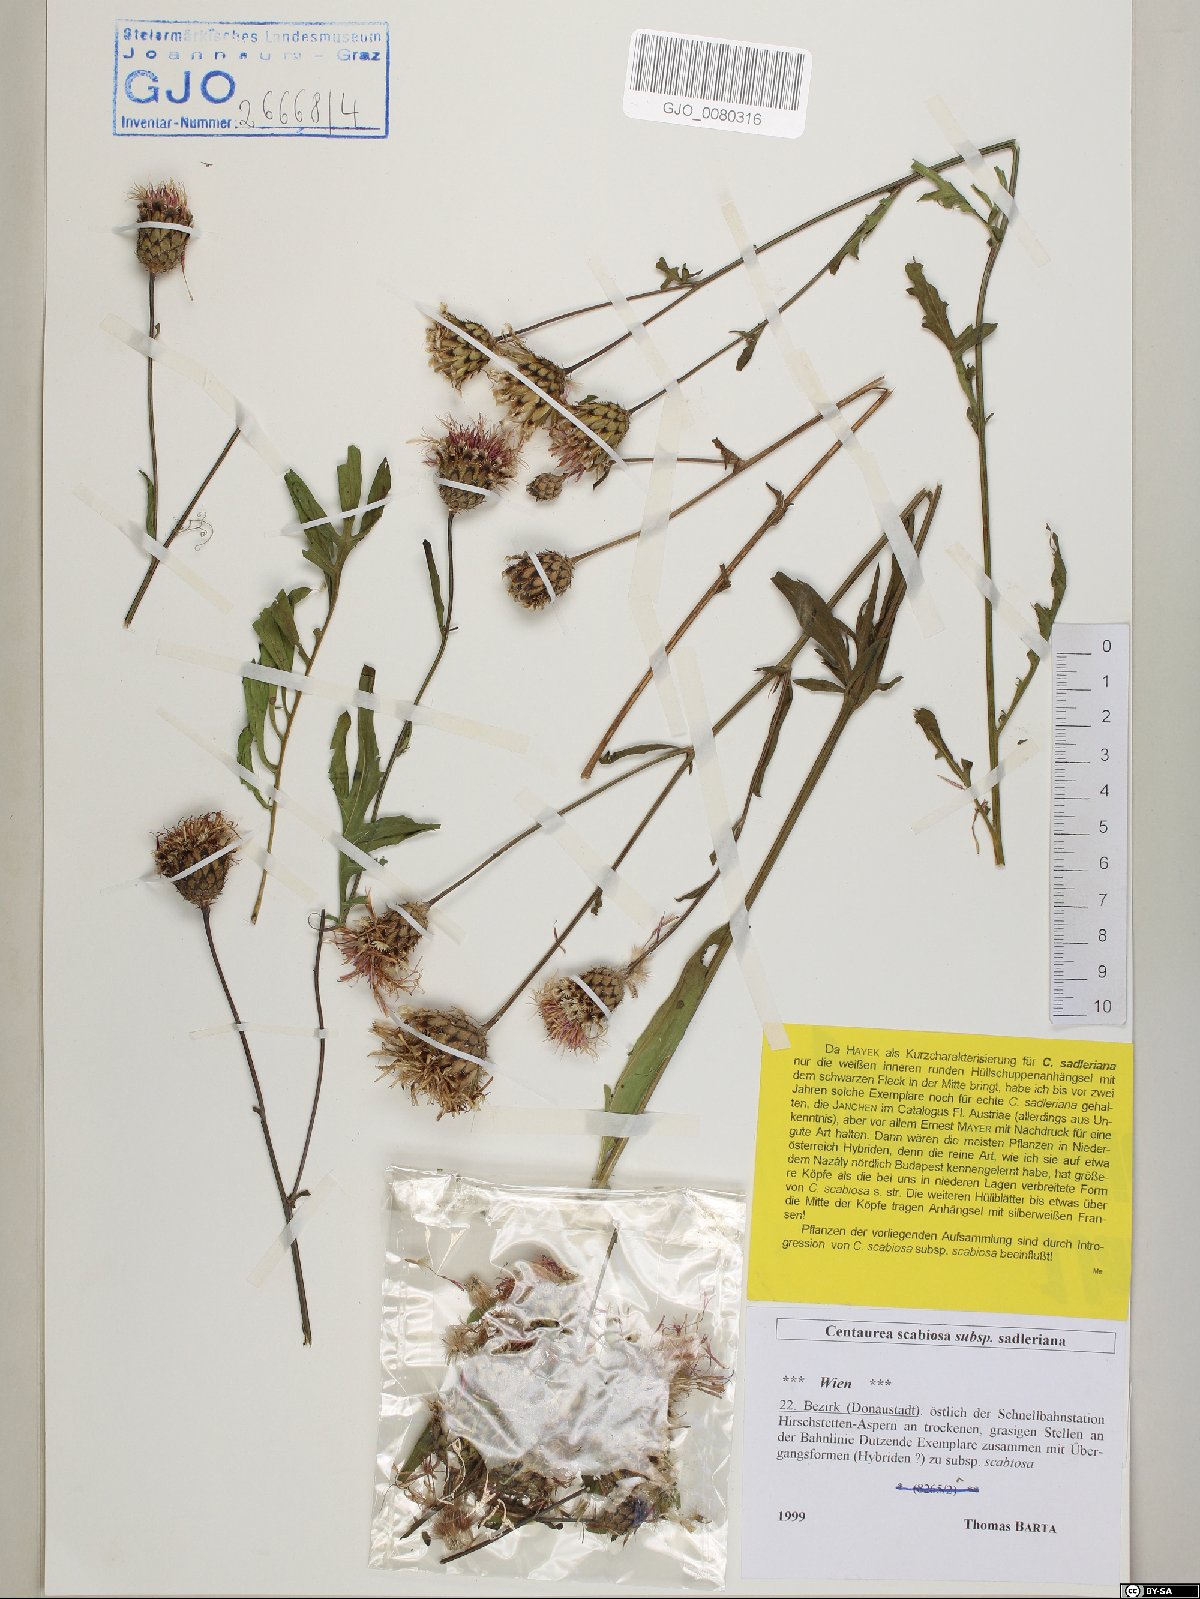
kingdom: Plantae
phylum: Tracheophyta
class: Magnoliopsida
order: Asterales
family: Asteraceae
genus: Centaurea
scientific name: Centaurea sadleriana
